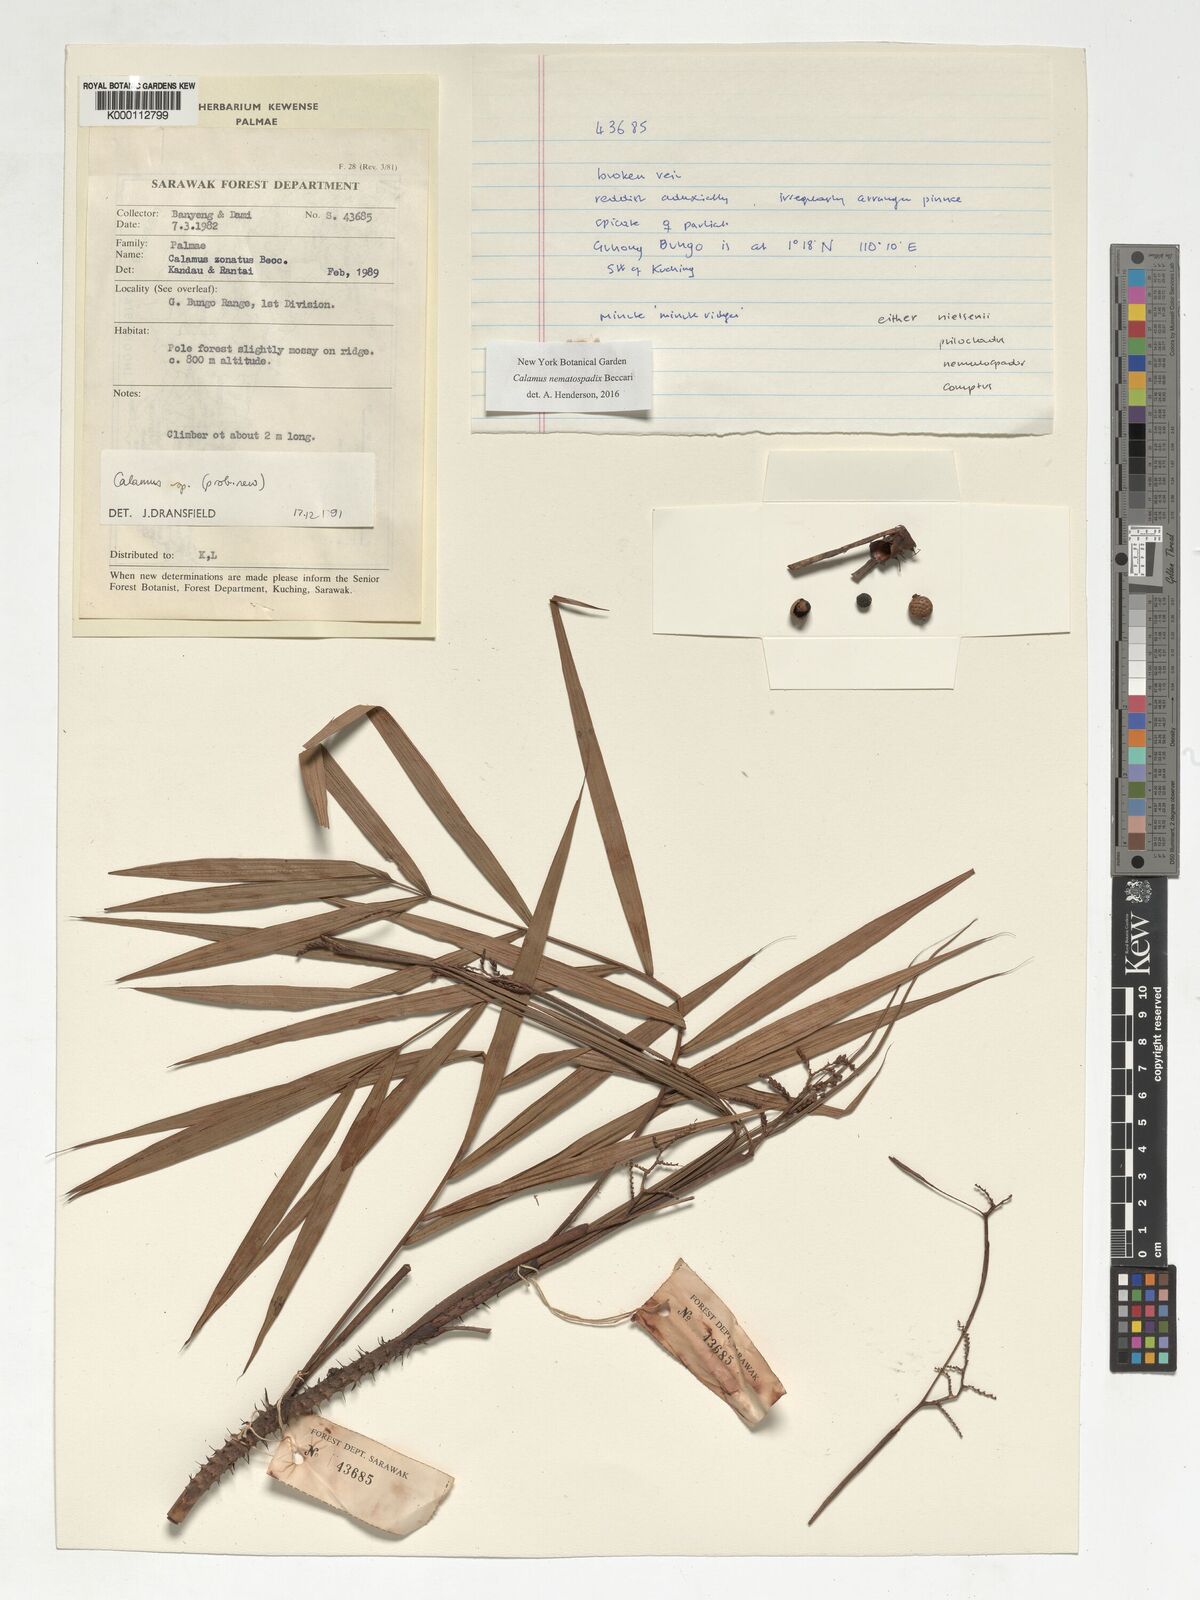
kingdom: Plantae
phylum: Tracheophyta
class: Liliopsida
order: Arecales
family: Arecaceae
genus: Calamus
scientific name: Calamus nematospadix
